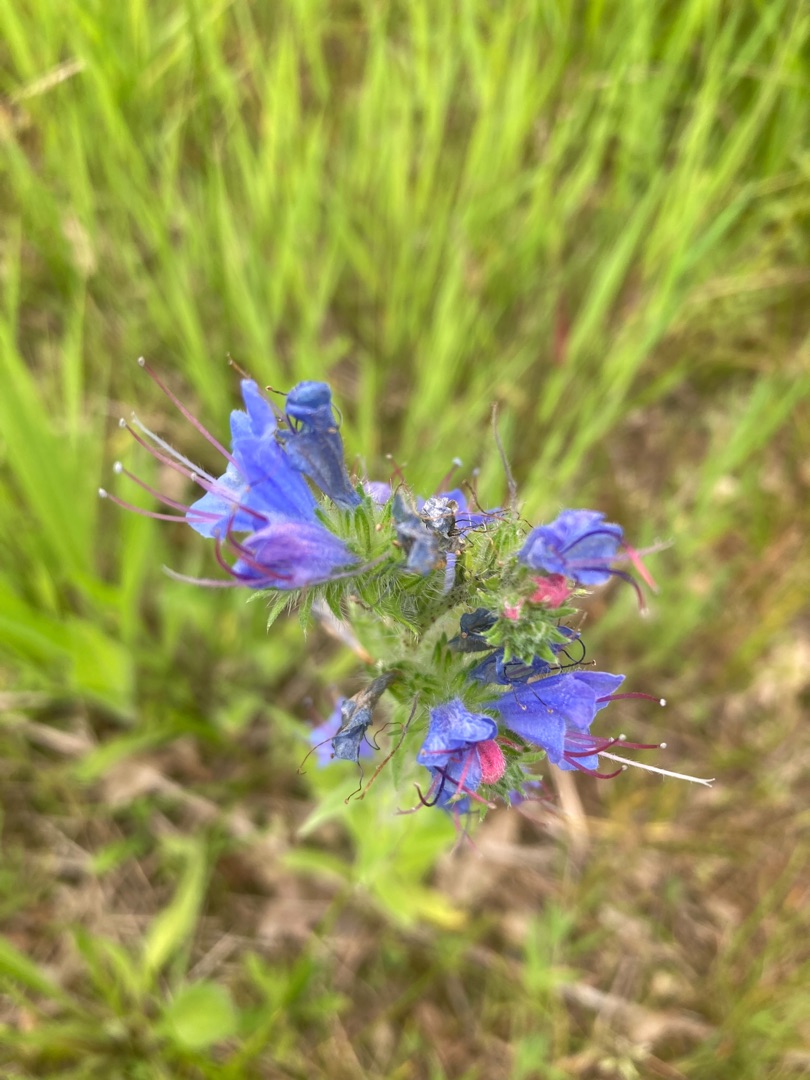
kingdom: Plantae
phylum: Tracheophyta
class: Magnoliopsida
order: Boraginales
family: Boraginaceae
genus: Echium
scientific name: Echium vulgare
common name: Slangehoved
